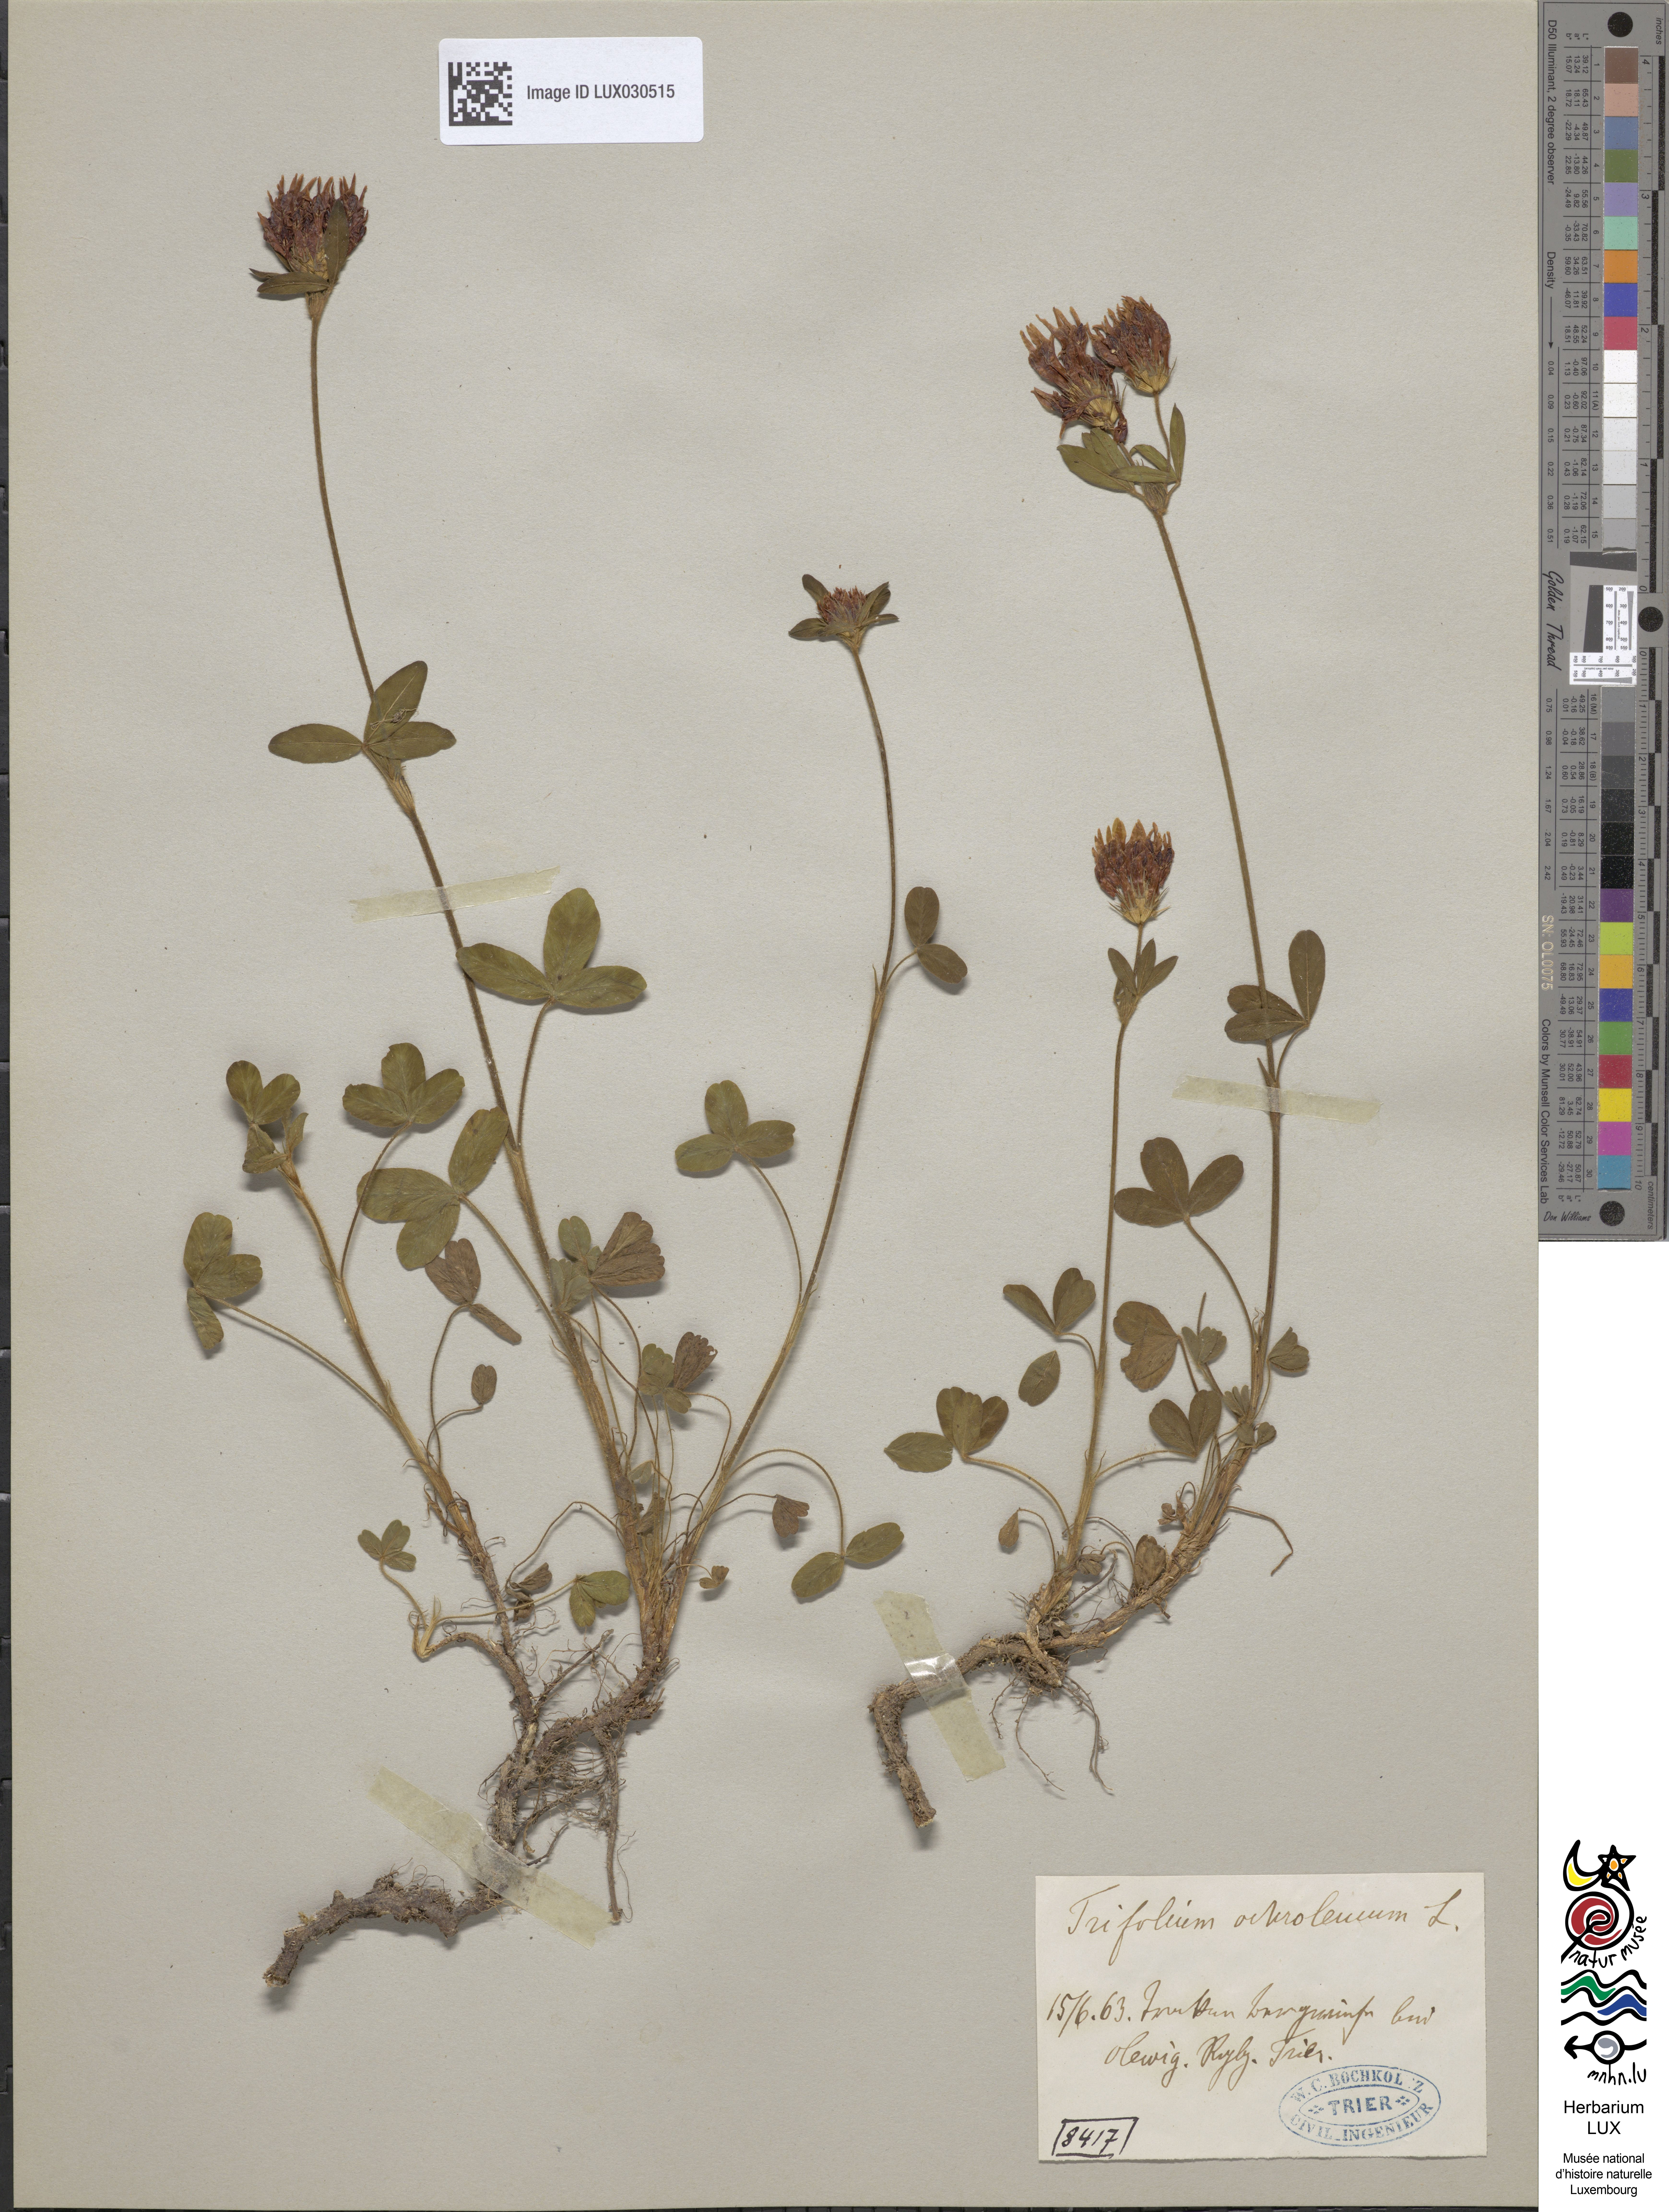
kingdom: Plantae
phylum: Tracheophyta
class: Magnoliopsida
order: Fabales
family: Fabaceae
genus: Trifolium
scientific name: Trifolium ochroleucon
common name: Sulphur clover
